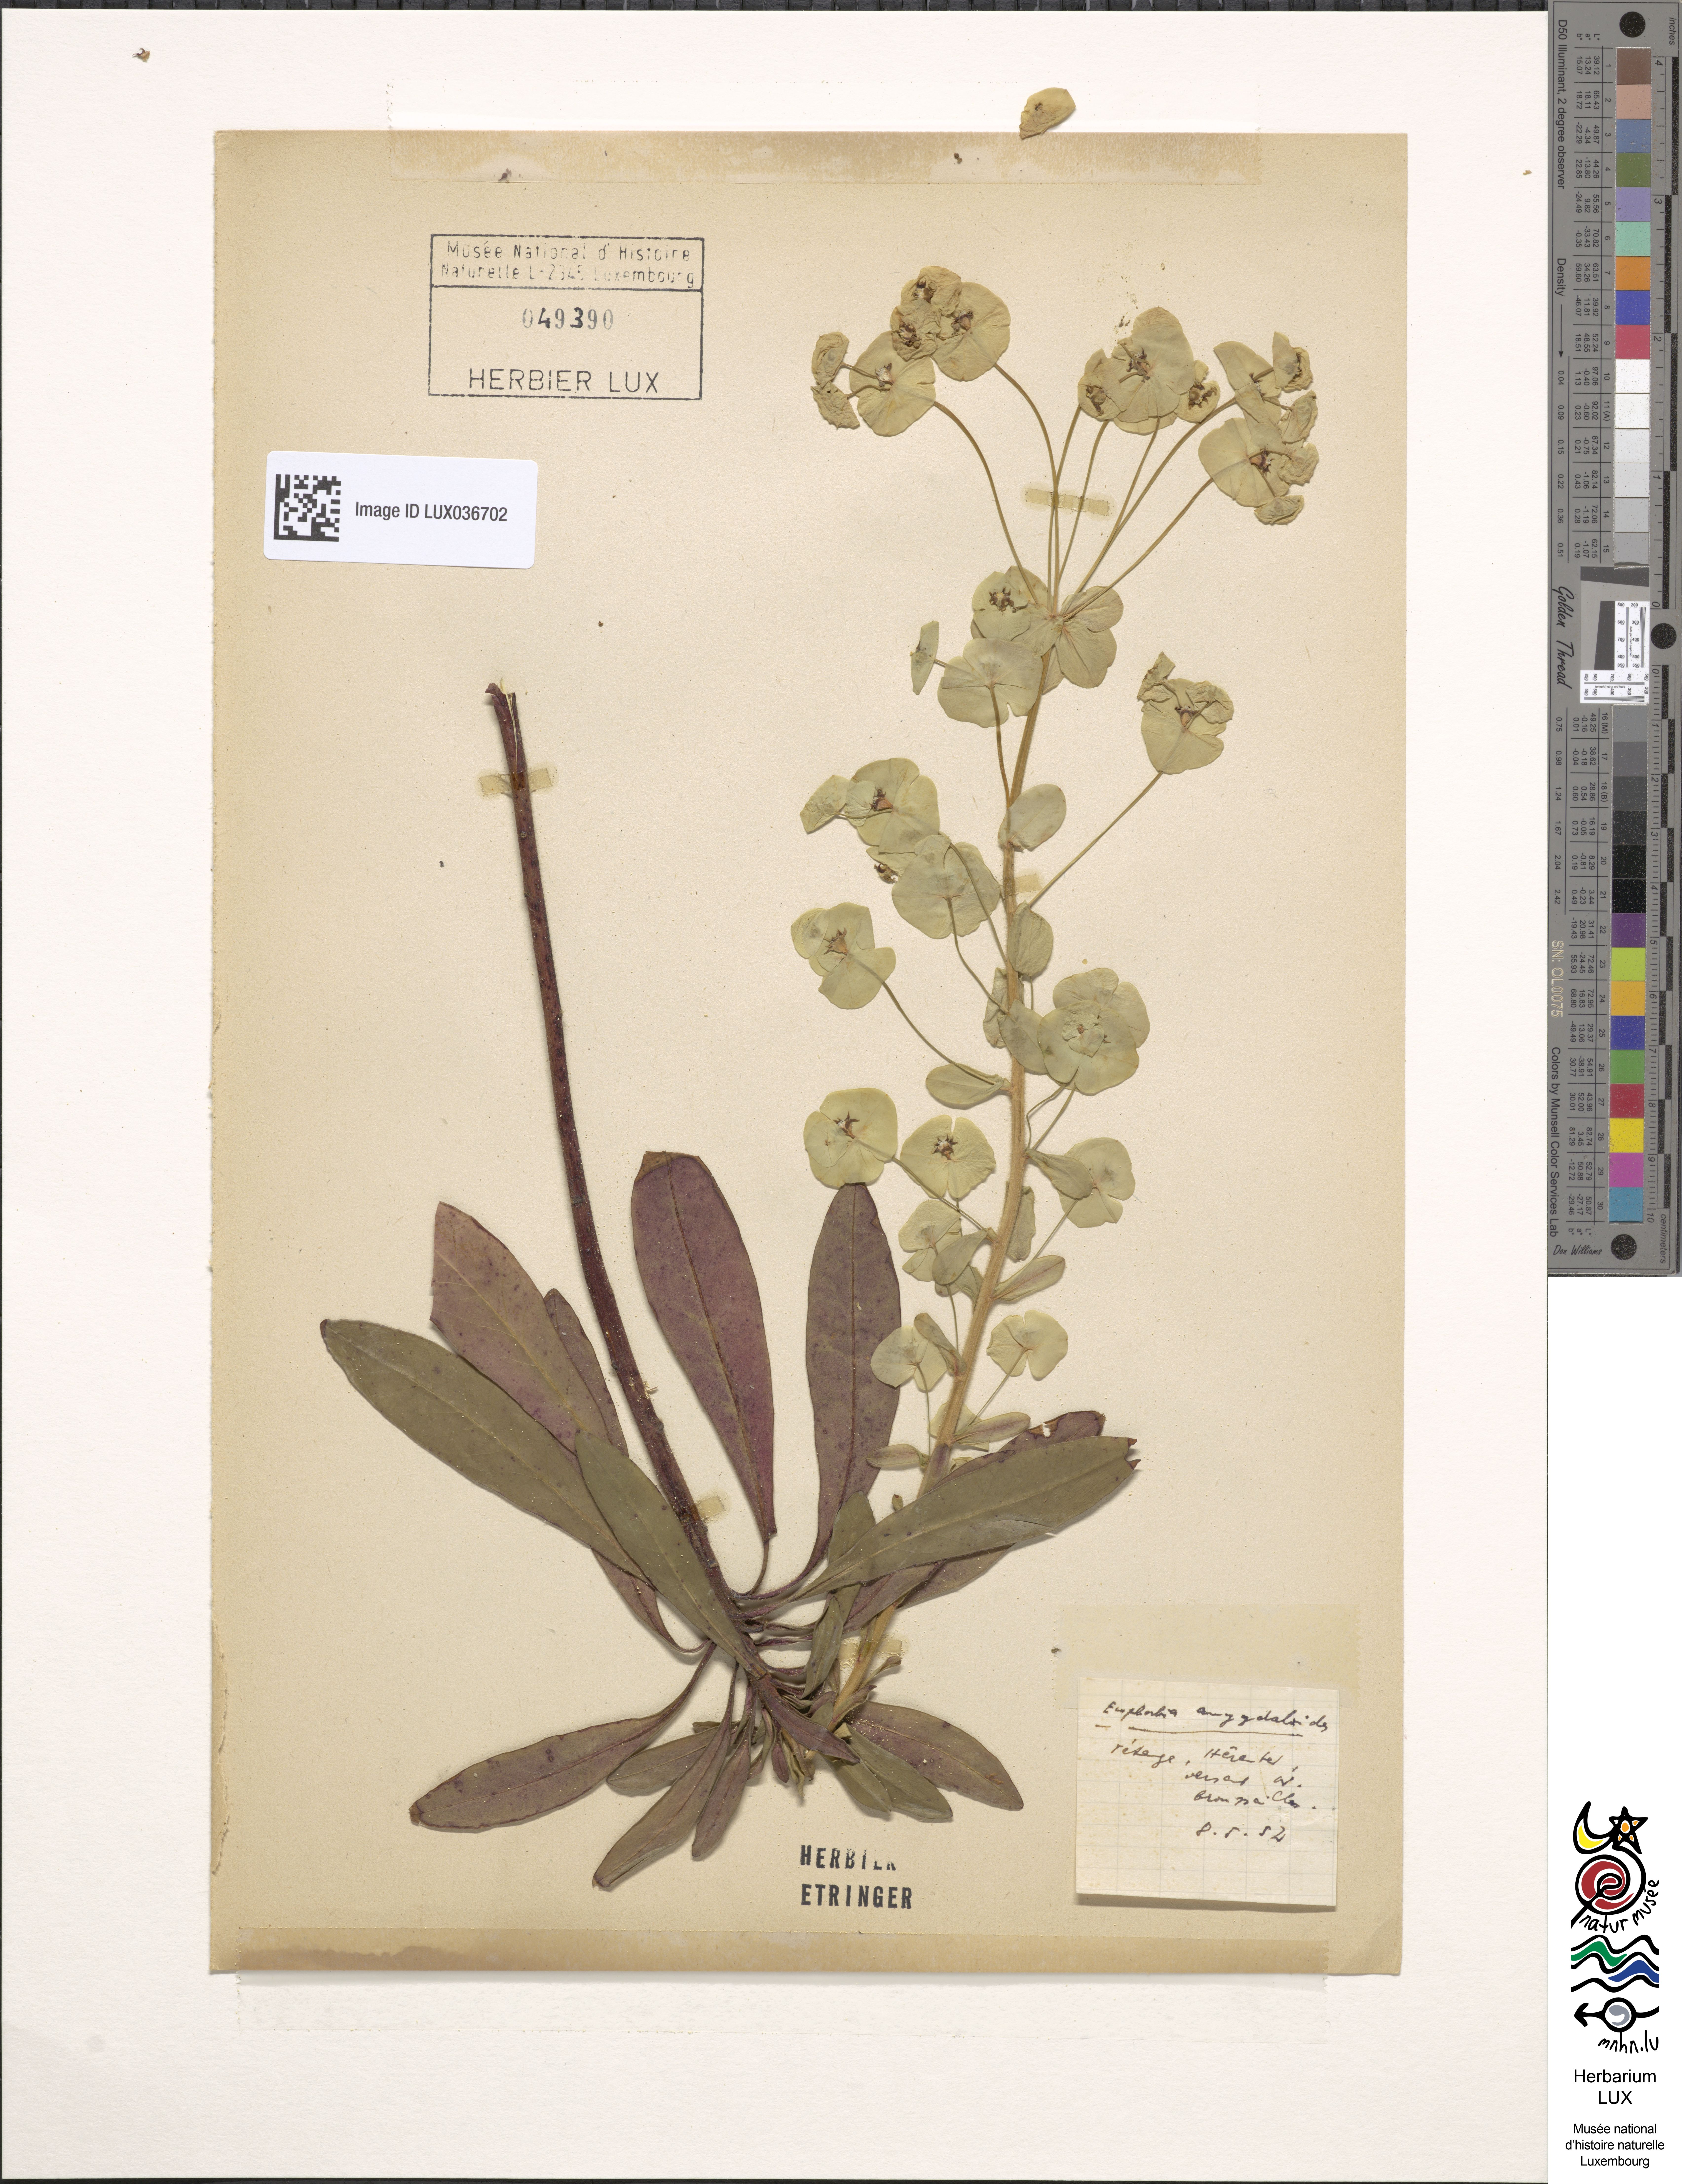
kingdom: Plantae
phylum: Tracheophyta
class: Magnoliopsida
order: Malpighiales
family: Euphorbiaceae
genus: Euphorbia
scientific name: Euphorbia amygdaloides
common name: Wood spurge
